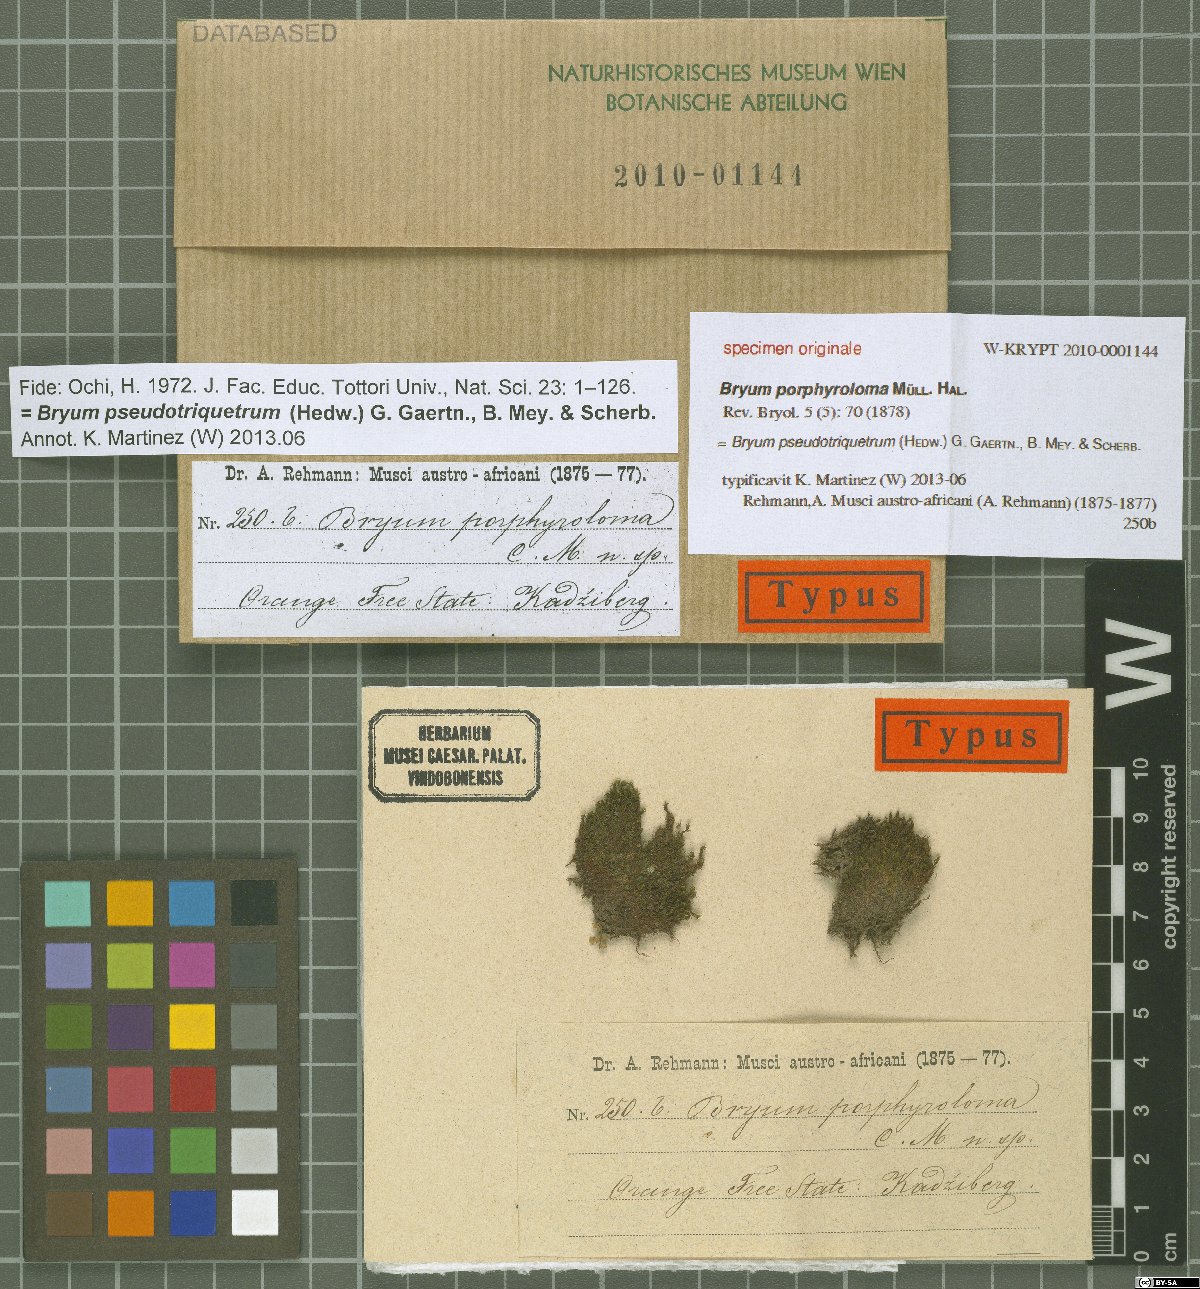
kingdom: Plantae
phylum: Bryophyta
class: Bryopsida
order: Bryales
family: Bryaceae
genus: Ptychostomum
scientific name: Ptychostomum pseudotriquetrum
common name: Long-leaved thread moss
